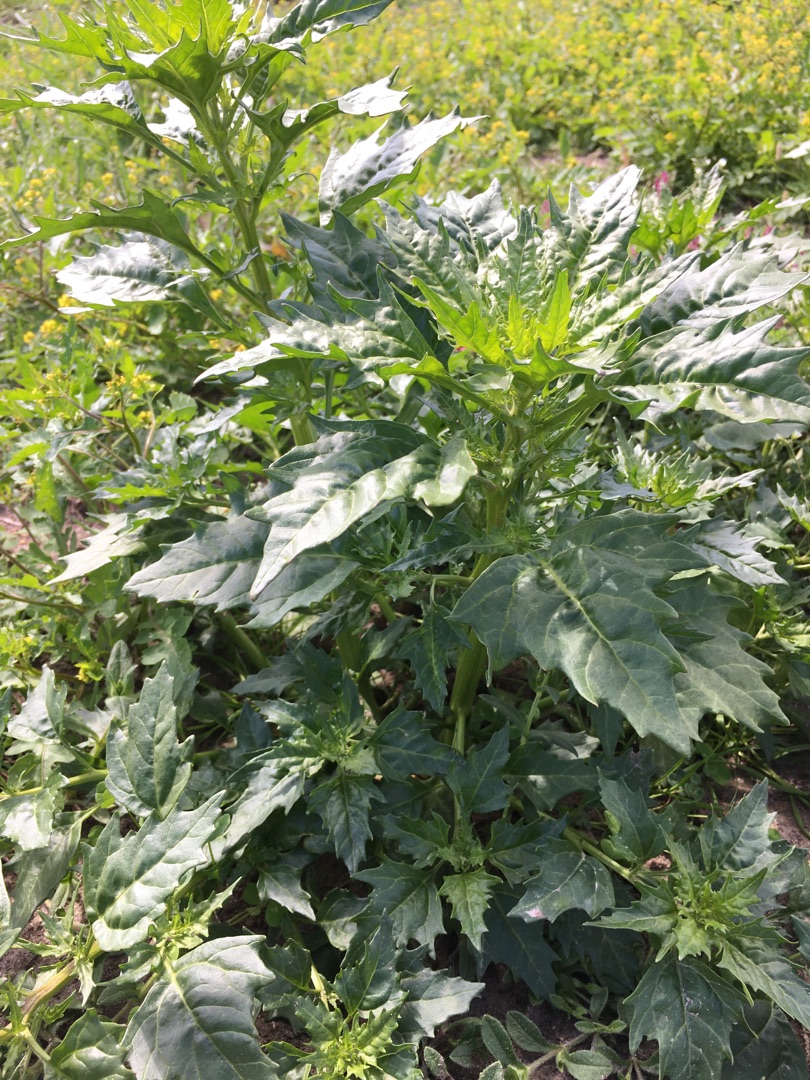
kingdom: Plantae
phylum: Tracheophyta
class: Magnoliopsida
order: Caryophyllales
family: Amaranthaceae
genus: Oxybasis
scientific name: Oxybasis rubra
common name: Rød gåsefod
